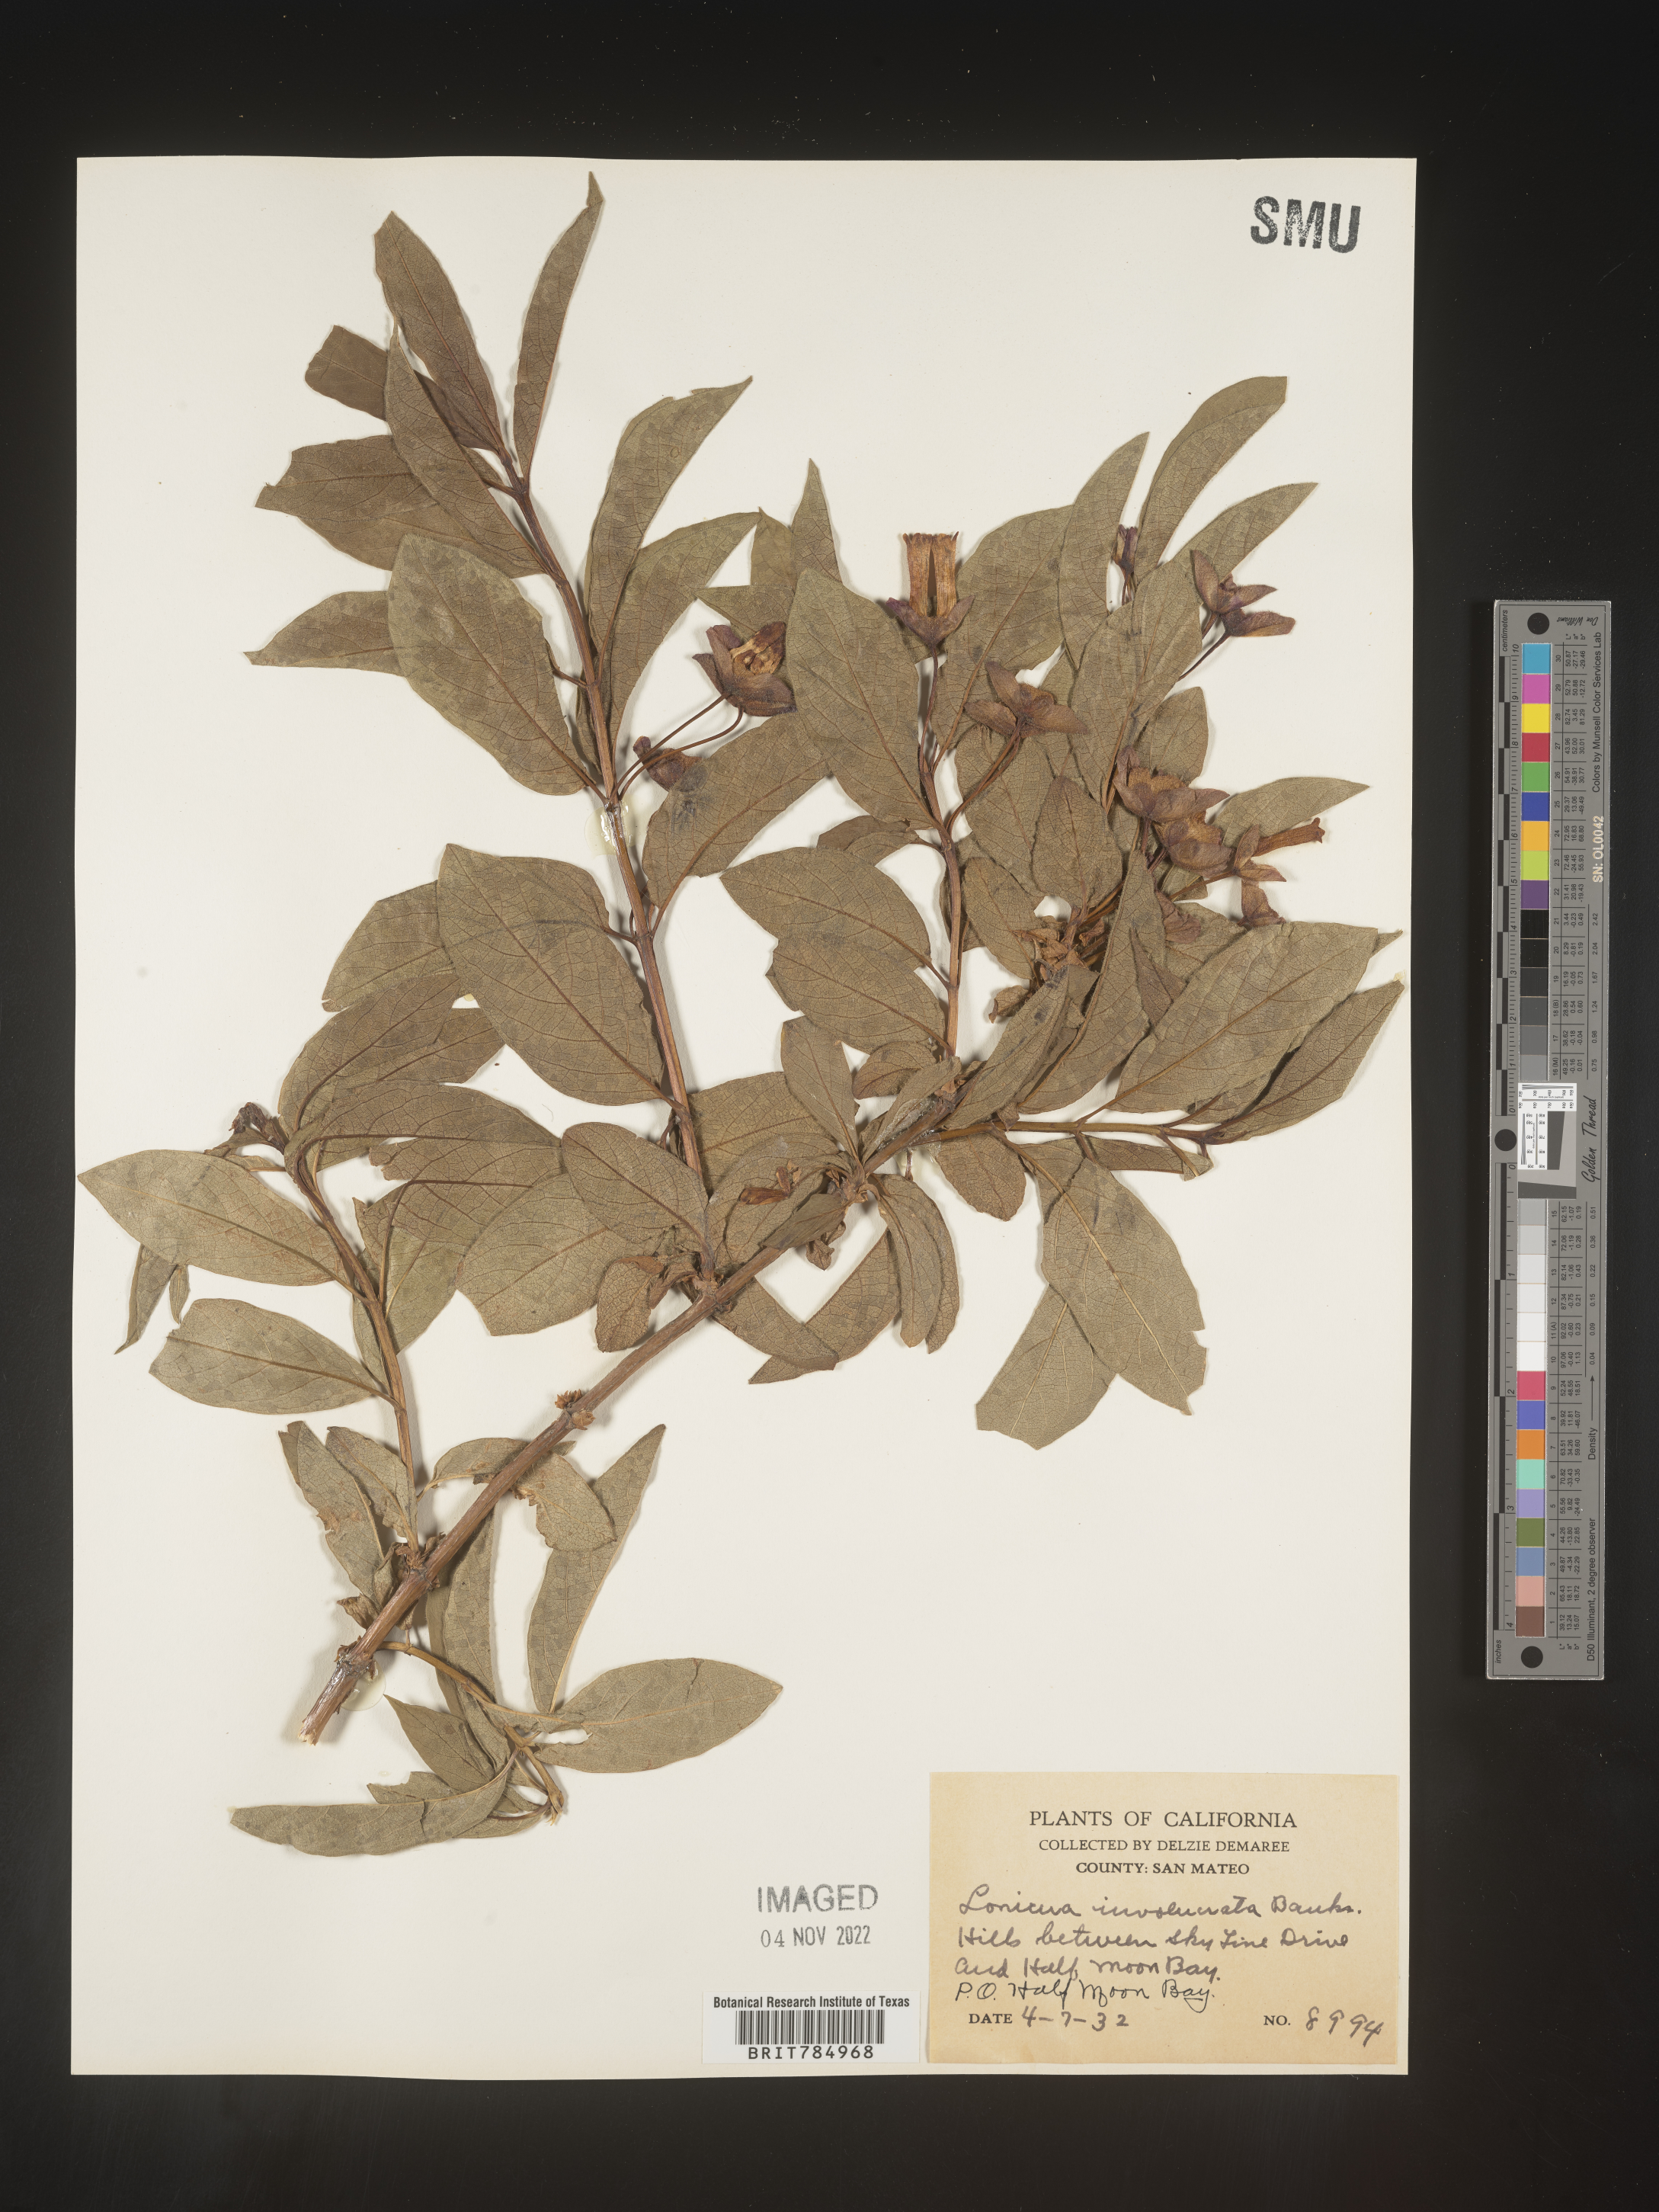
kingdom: Plantae
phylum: Tracheophyta
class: Magnoliopsida
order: Dipsacales
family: Caprifoliaceae
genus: Lonicera
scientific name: Lonicera involucrata
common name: Californian honeysuckle
